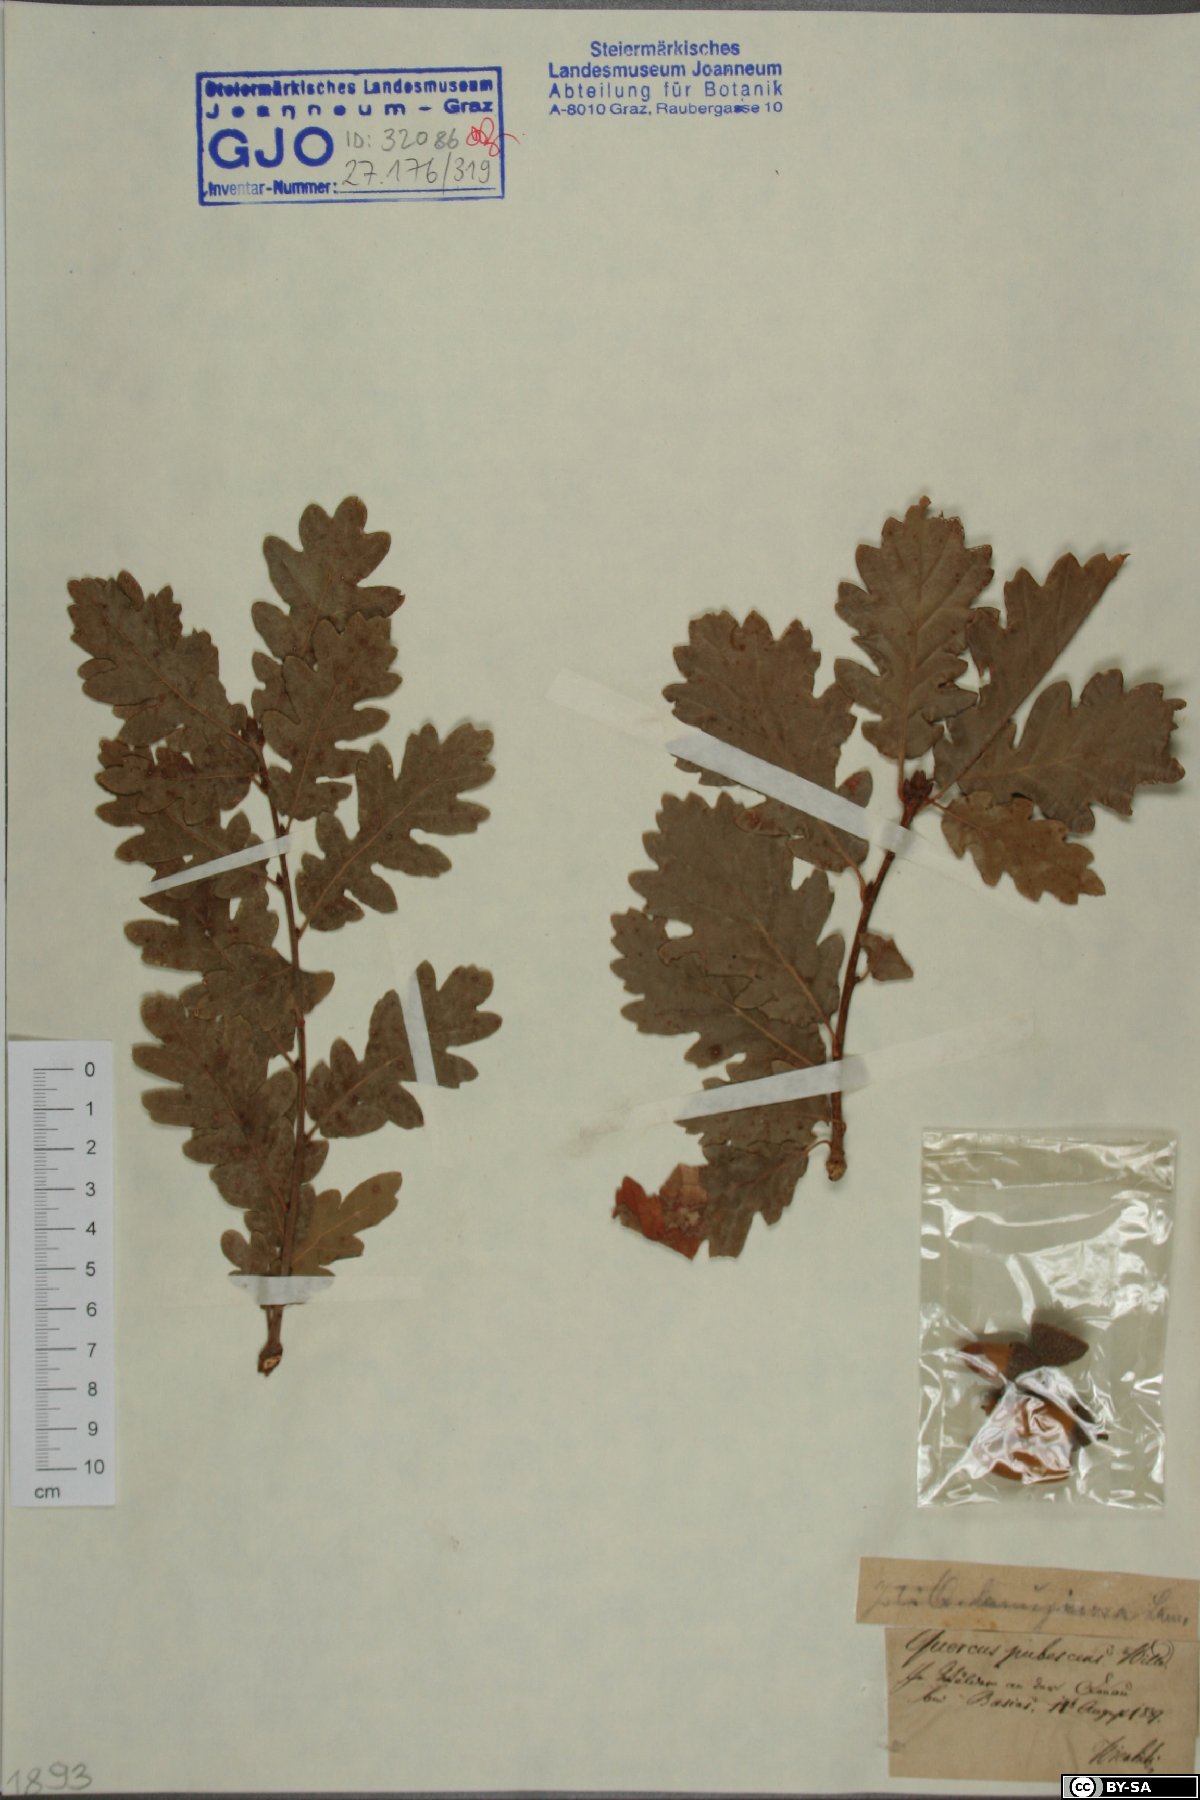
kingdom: Plantae
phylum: Tracheophyta
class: Magnoliopsida
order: Fagales
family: Fagaceae
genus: Quercus
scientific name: Quercus pubescens
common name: Downy oak
